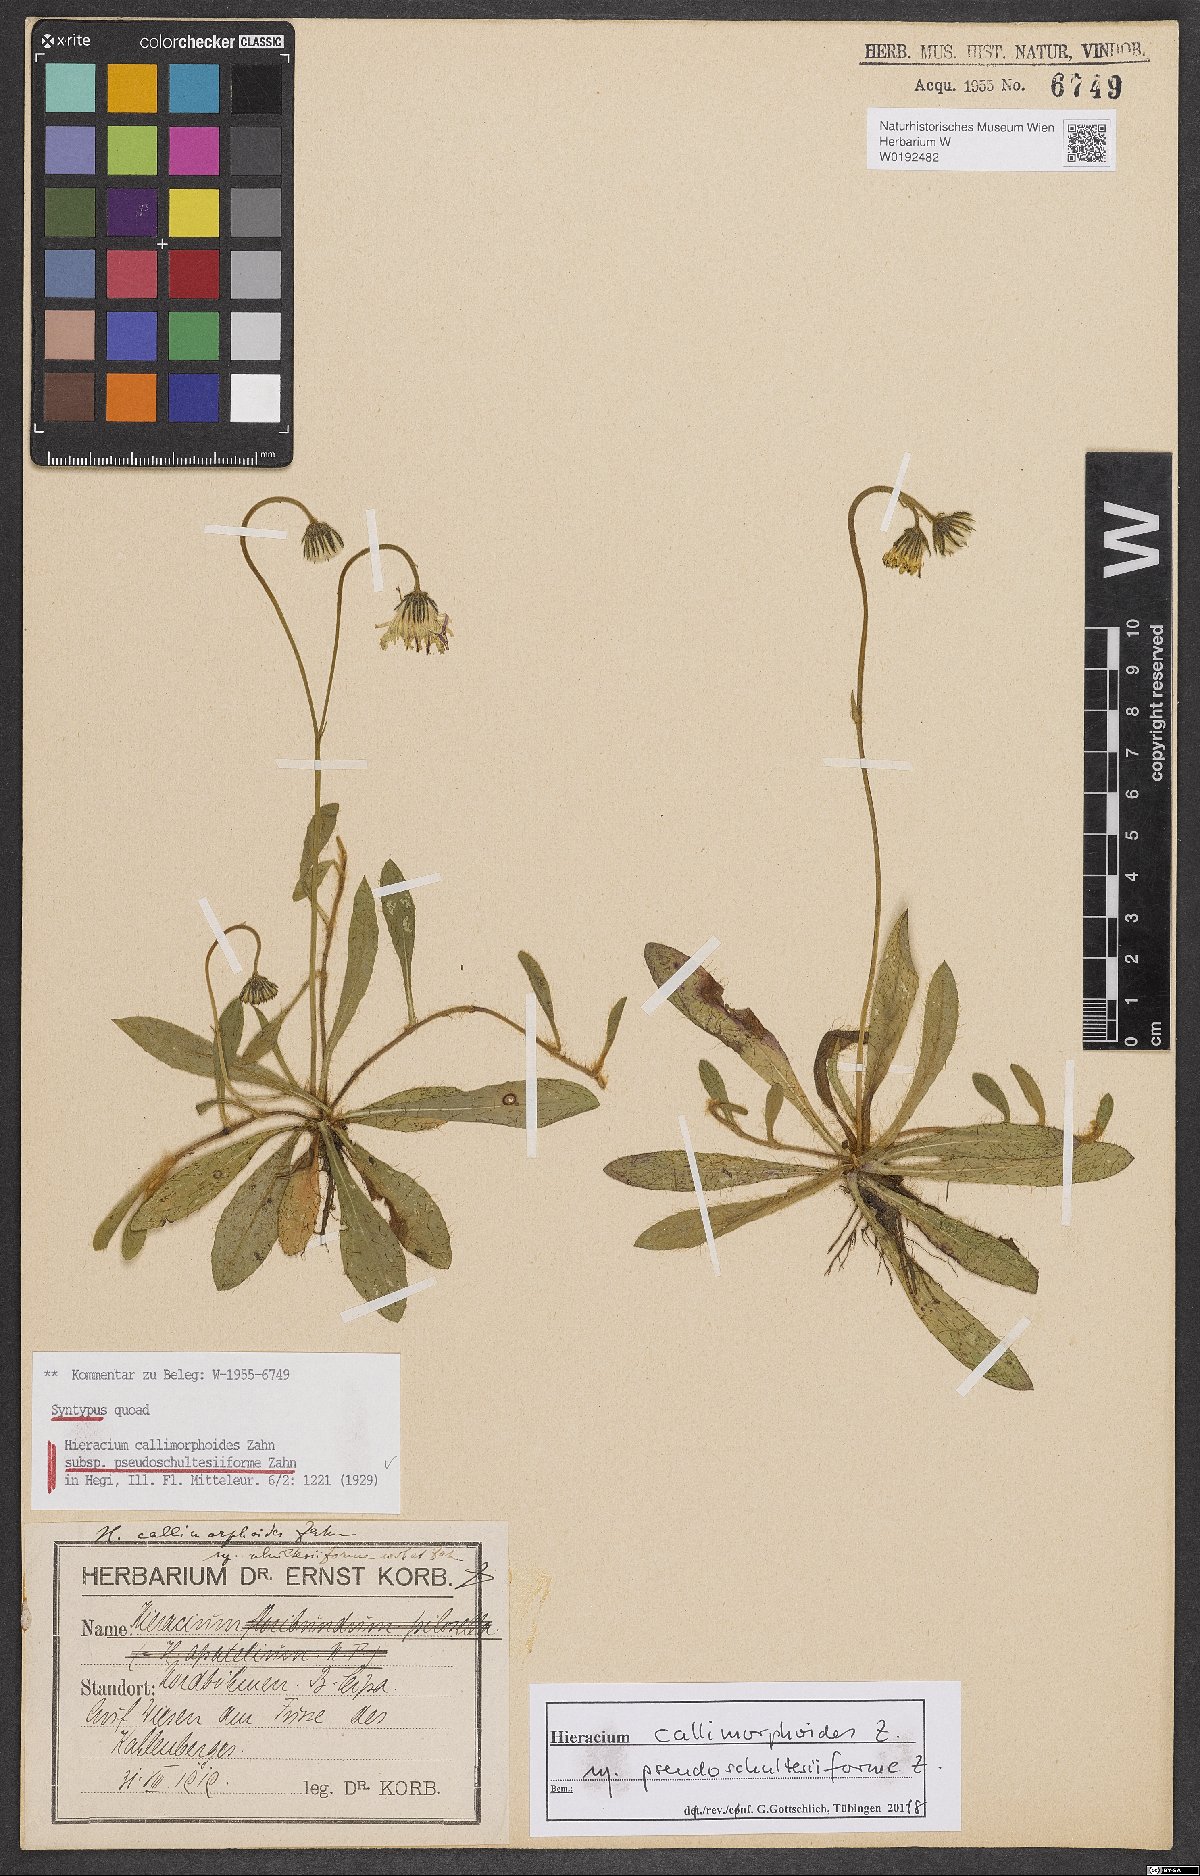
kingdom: Plantae
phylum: Tracheophyta
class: Magnoliopsida
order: Asterales
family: Asteraceae
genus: Pilosella
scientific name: Pilosella piloselliflora
